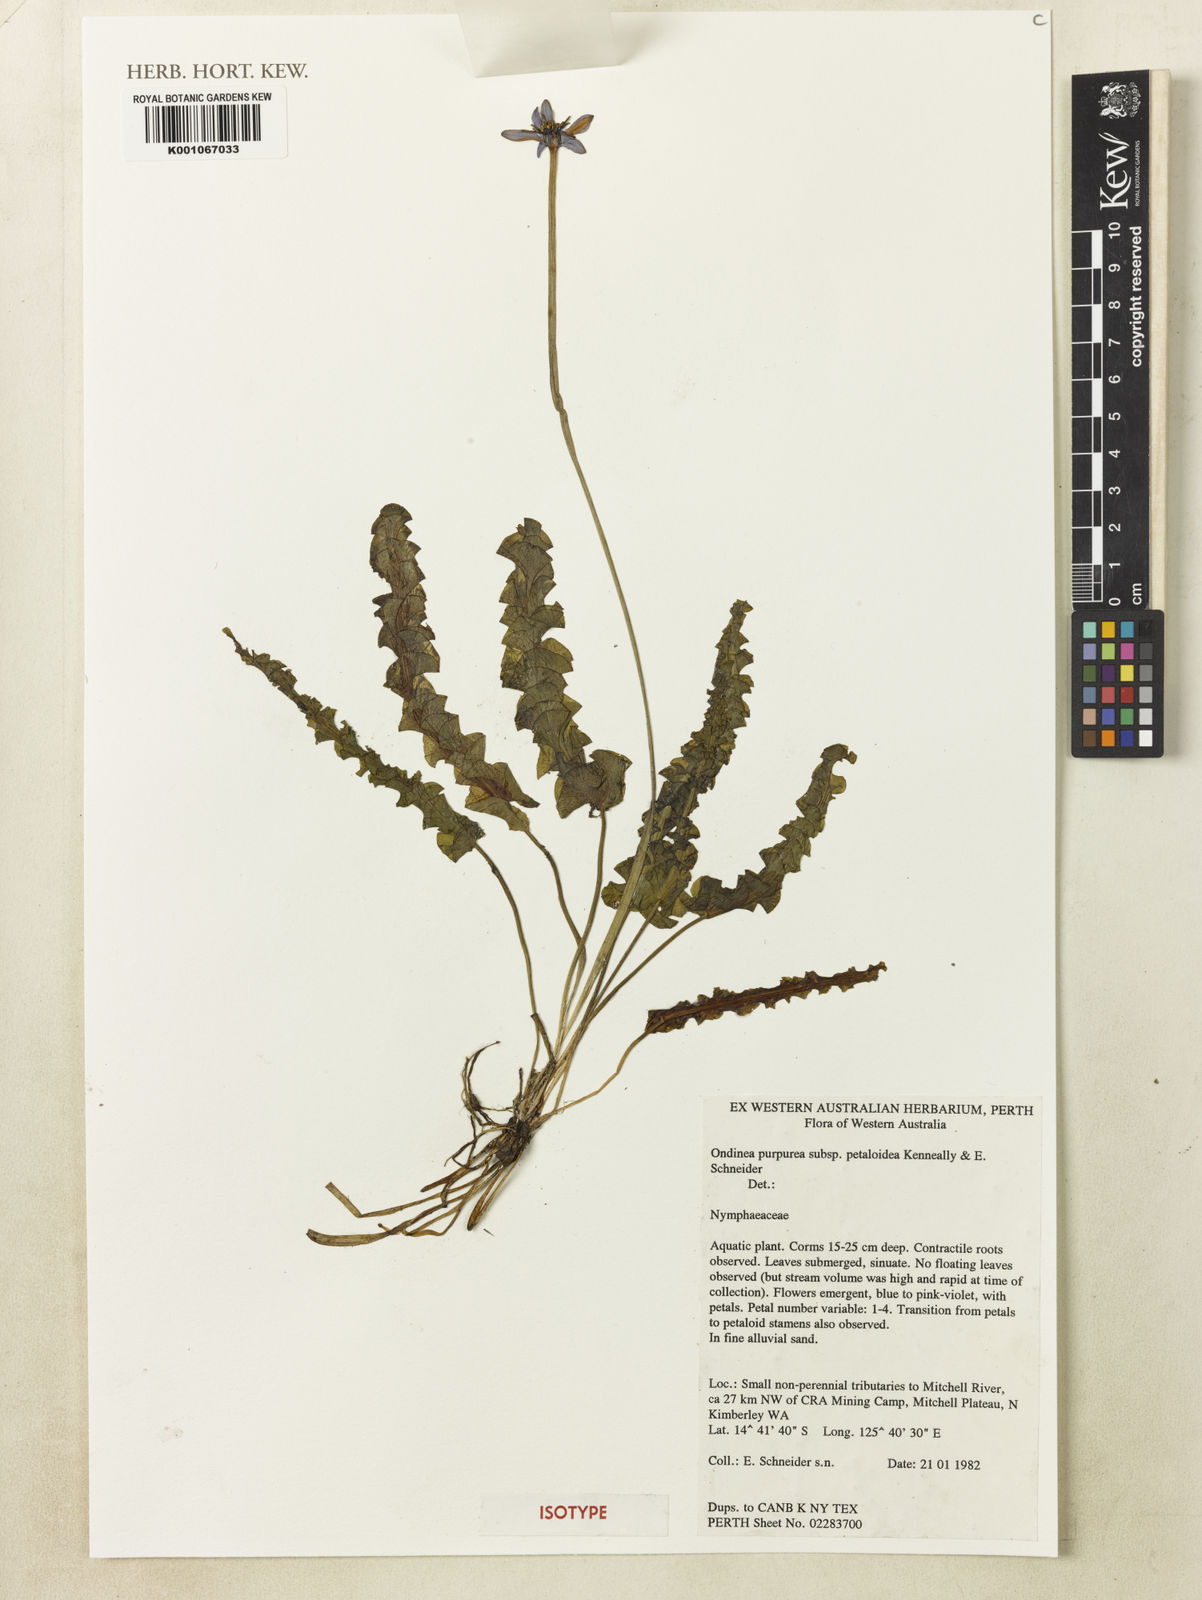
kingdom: Plantae
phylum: Tracheophyta
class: Magnoliopsida
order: Nymphaeales
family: Nymphaeaceae
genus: Nymphaea
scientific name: Nymphaea ondinea
